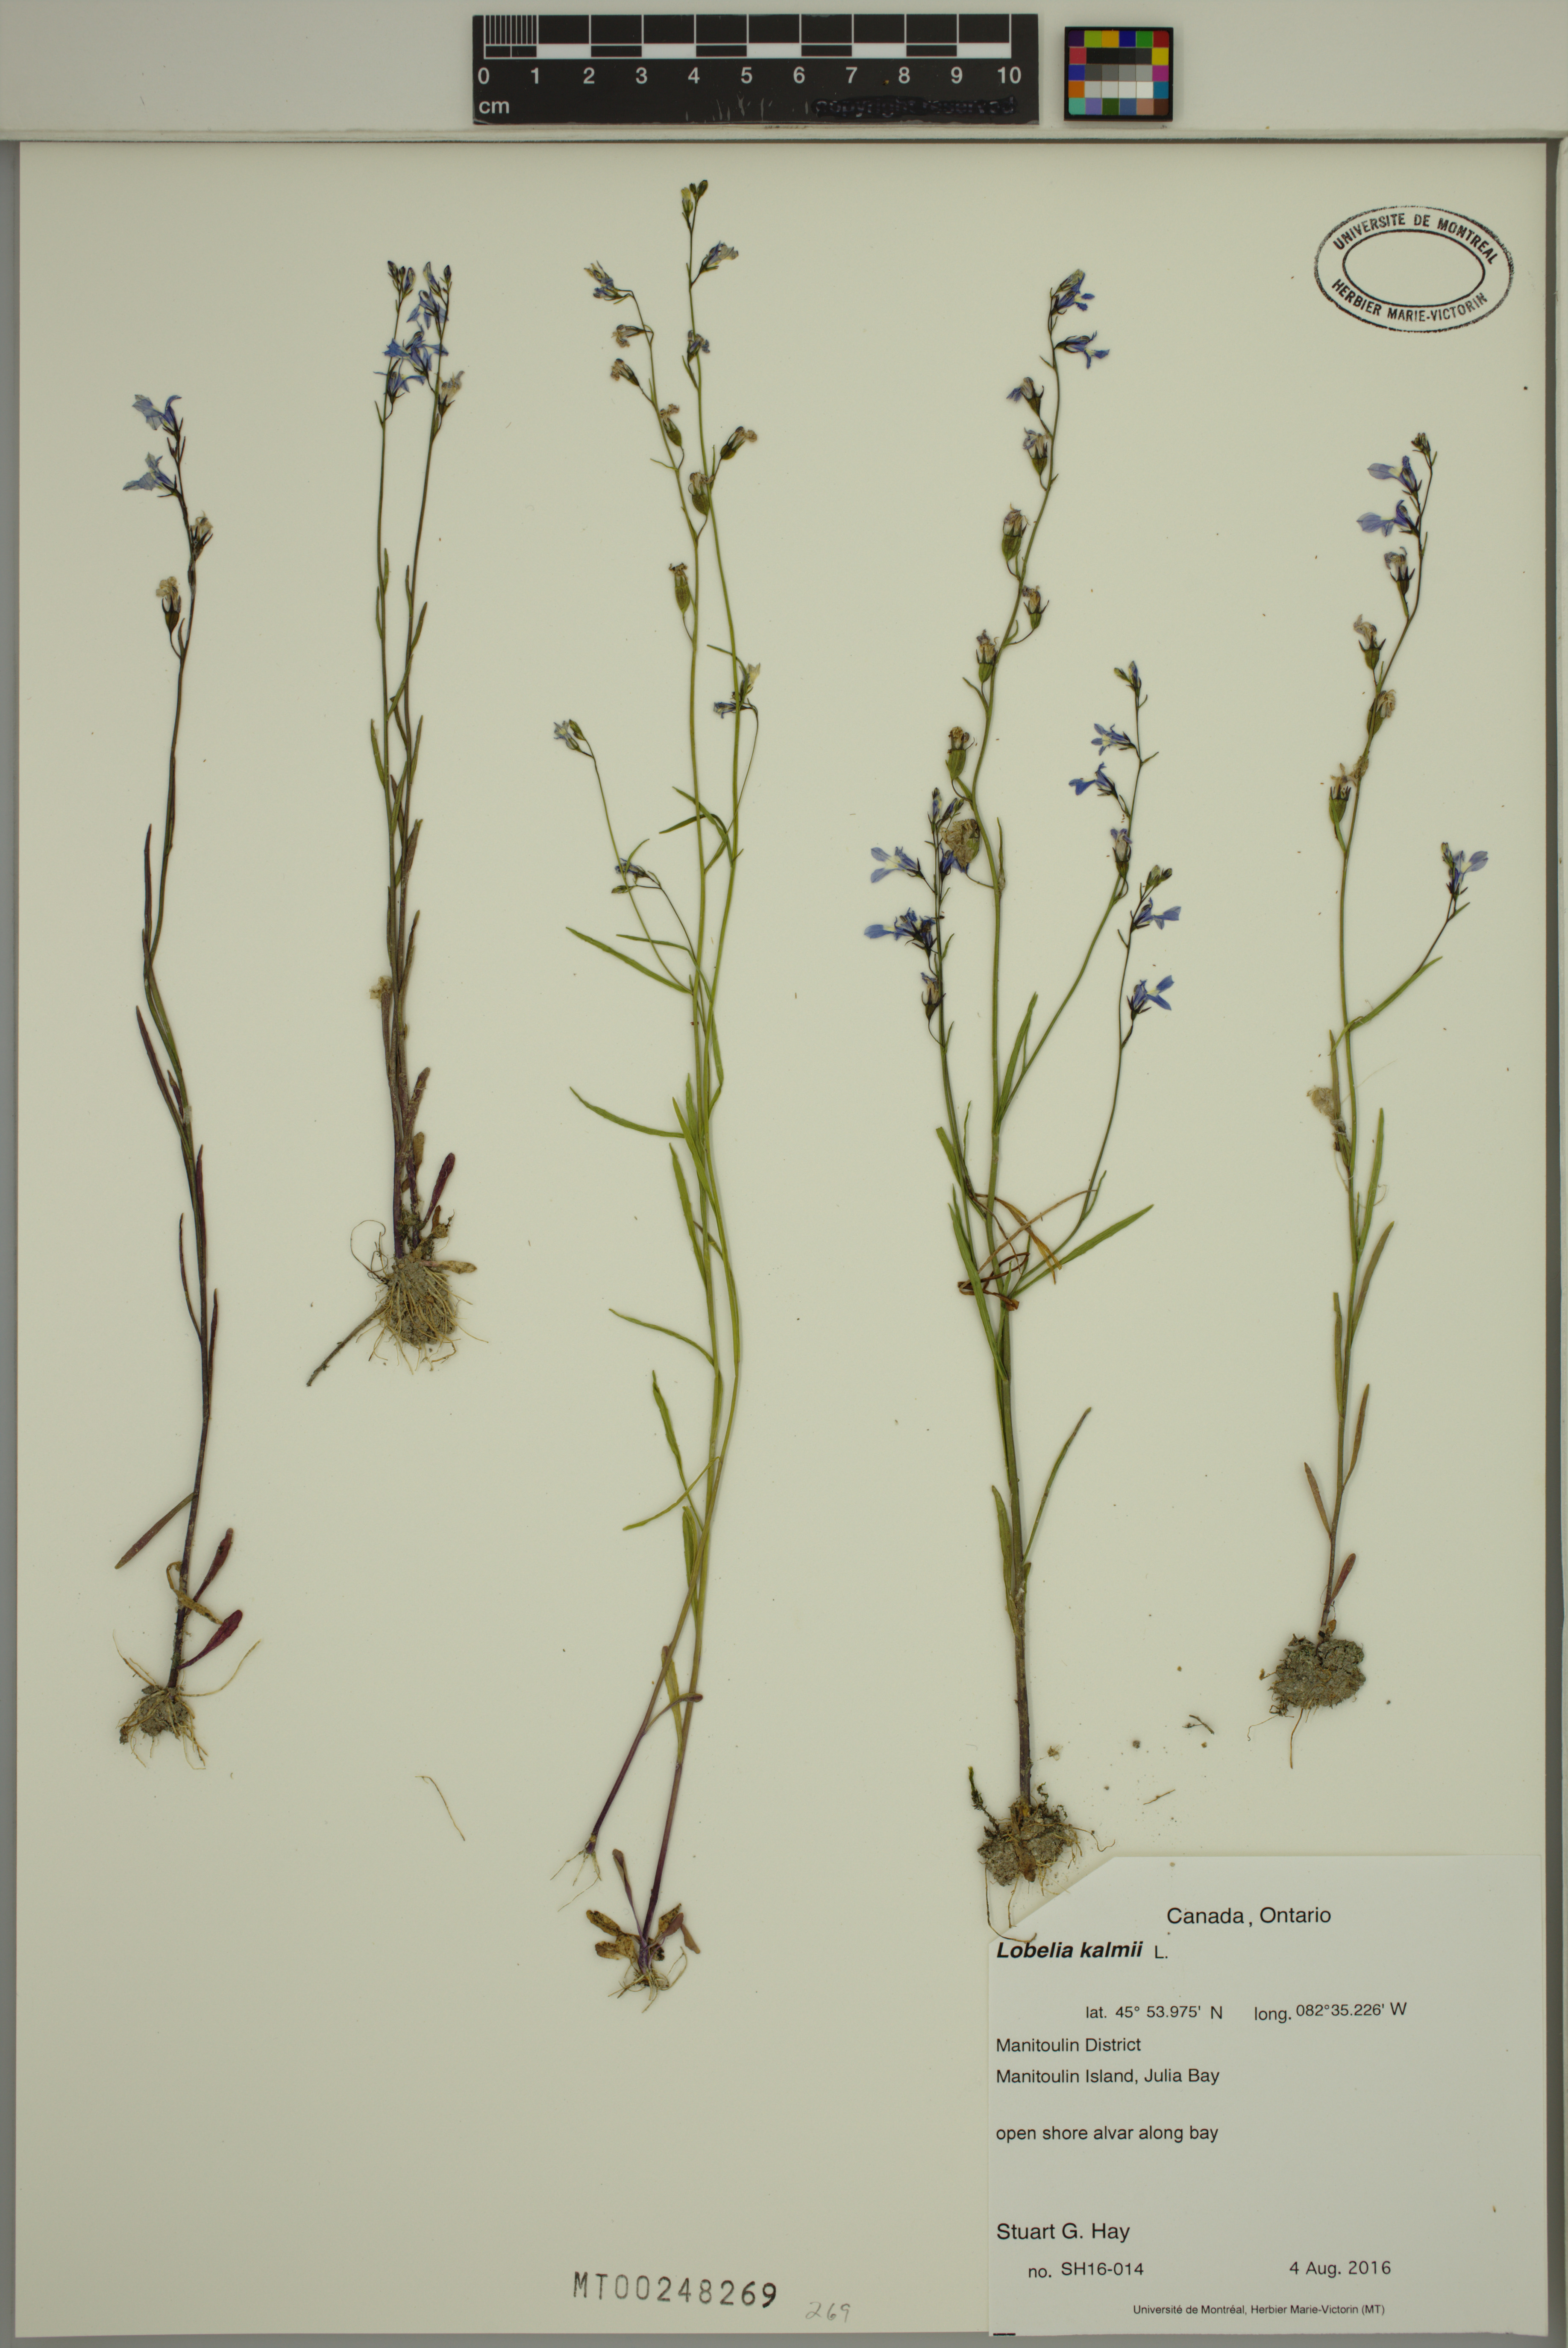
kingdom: Plantae
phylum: Tracheophyta
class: Magnoliopsida
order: Asterales
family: Campanulaceae
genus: Lobelia
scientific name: Lobelia kalmii
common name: Kalm's lobelia
